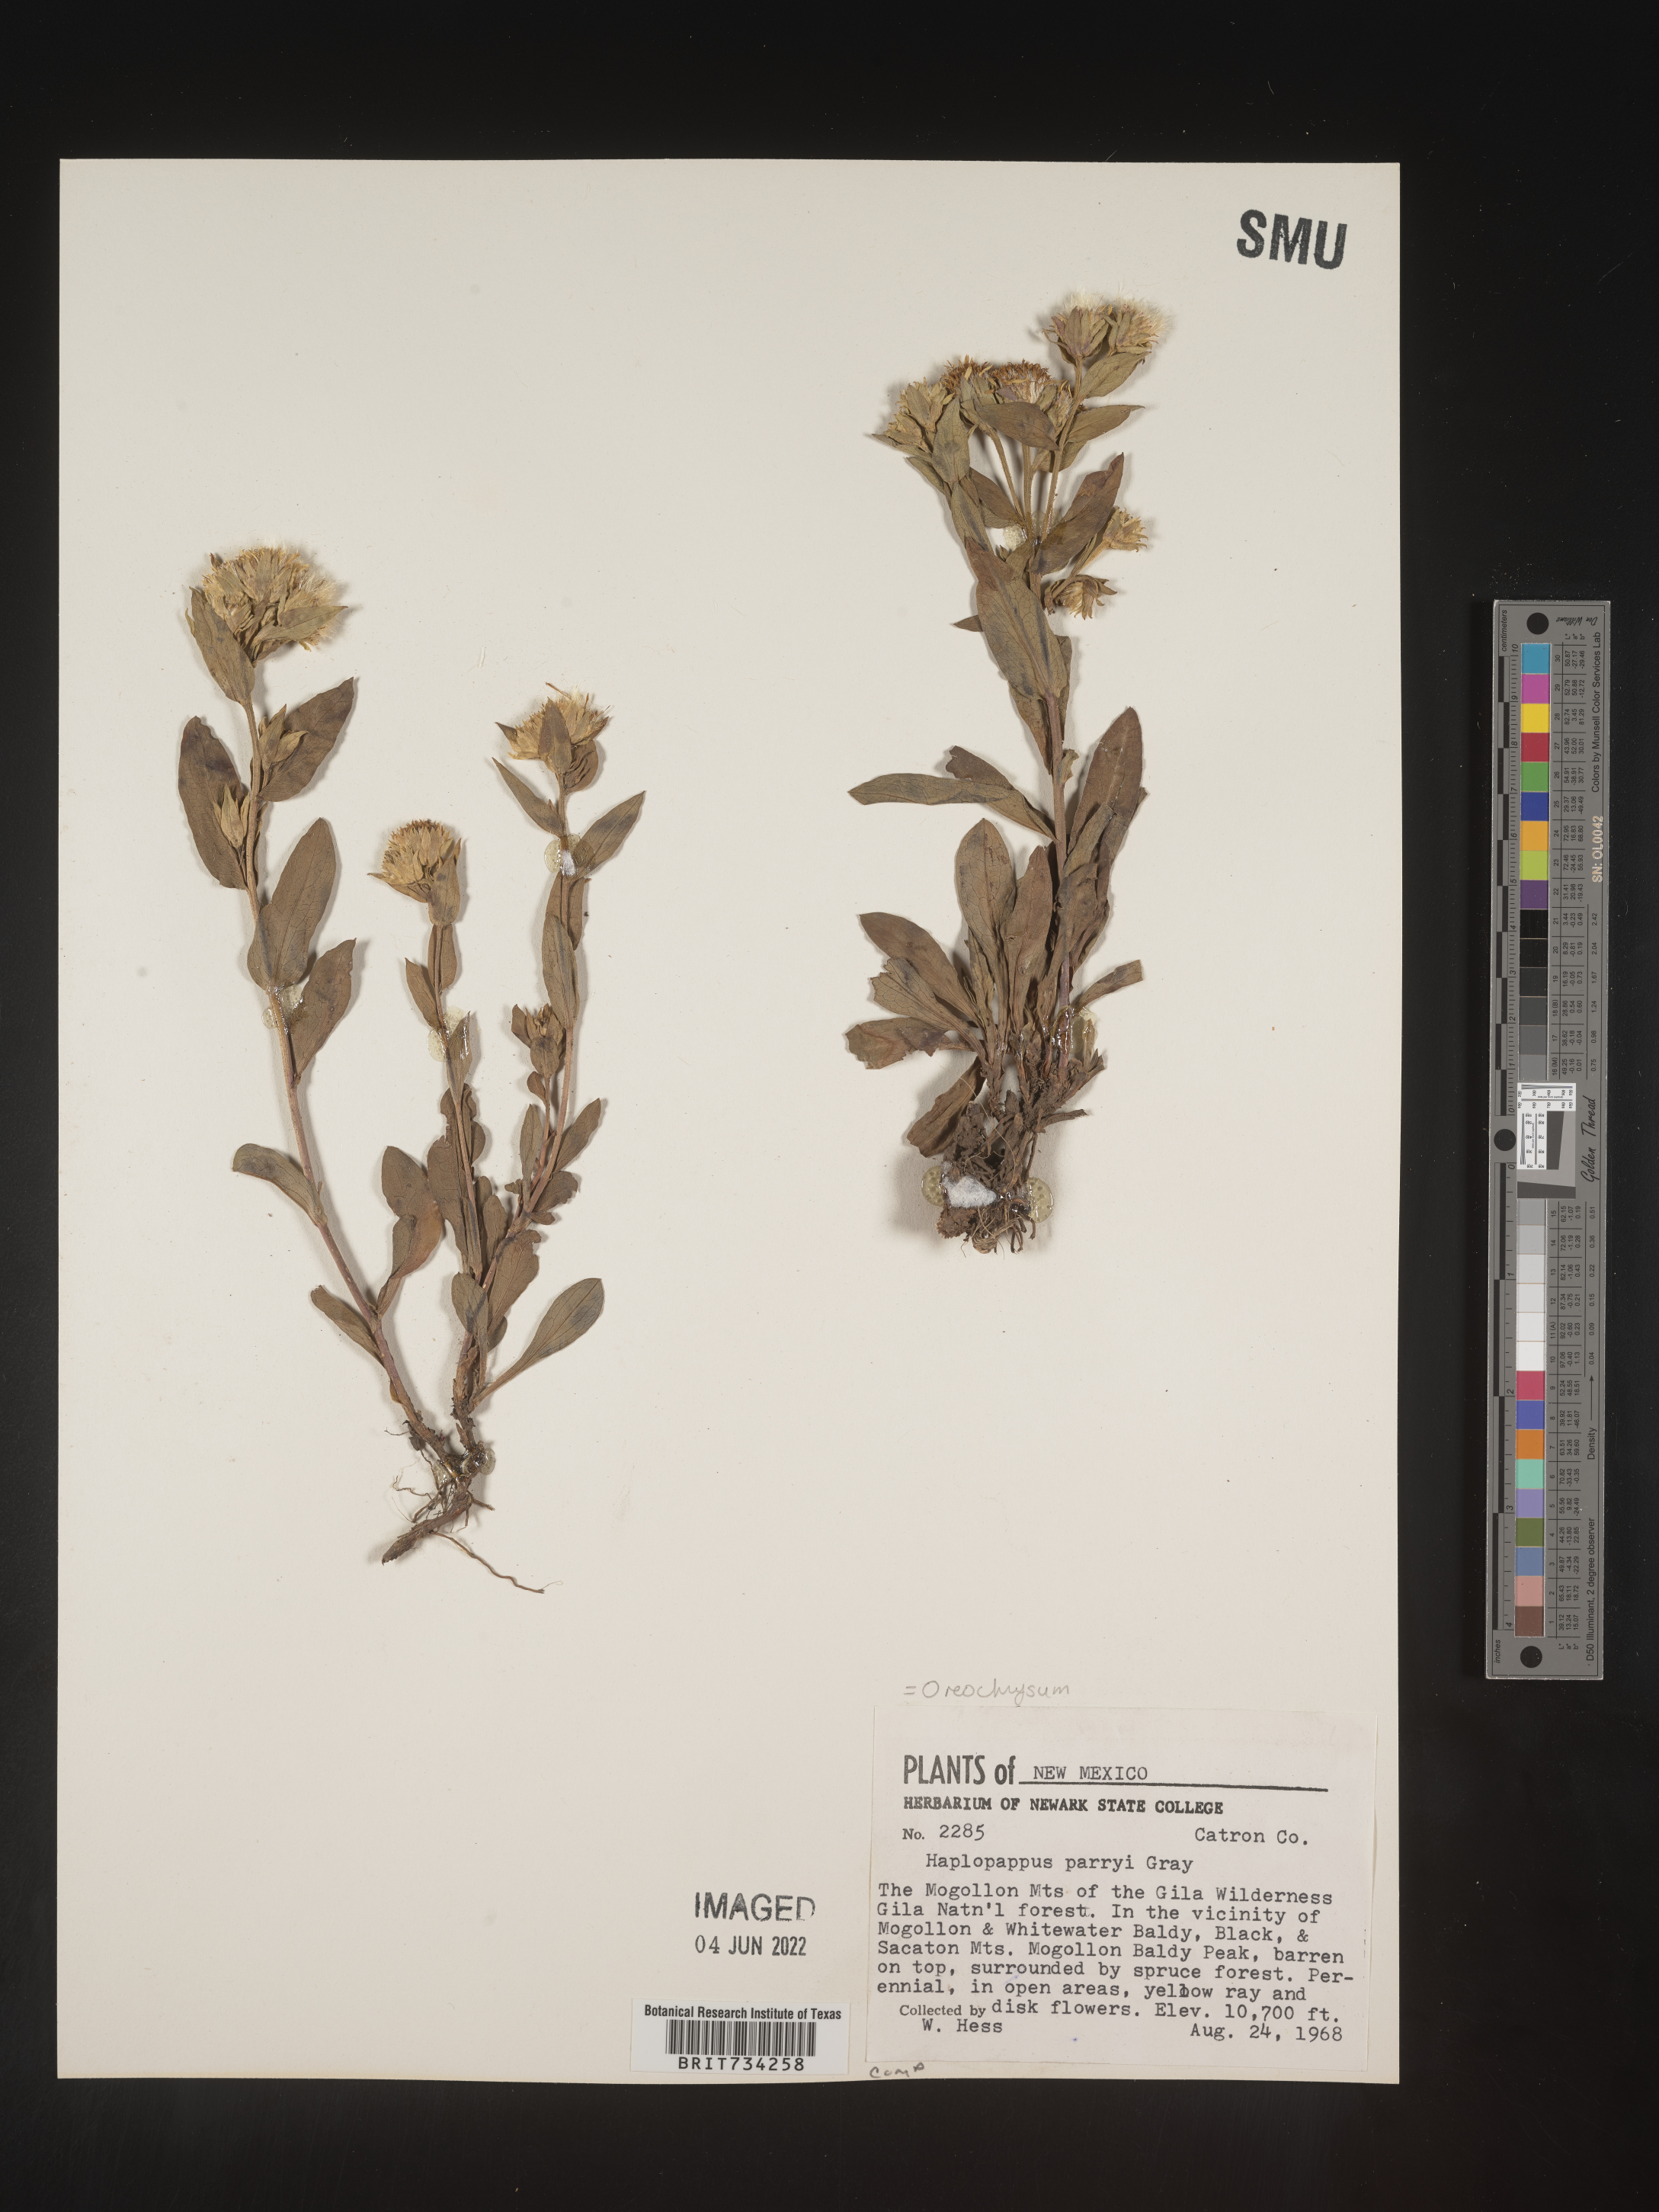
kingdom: Plantae
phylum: Tracheophyta
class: Magnoliopsida
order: Asterales
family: Asteraceae
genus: Oreochrysum
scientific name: Oreochrysum parryi
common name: Parry's goldenweed
